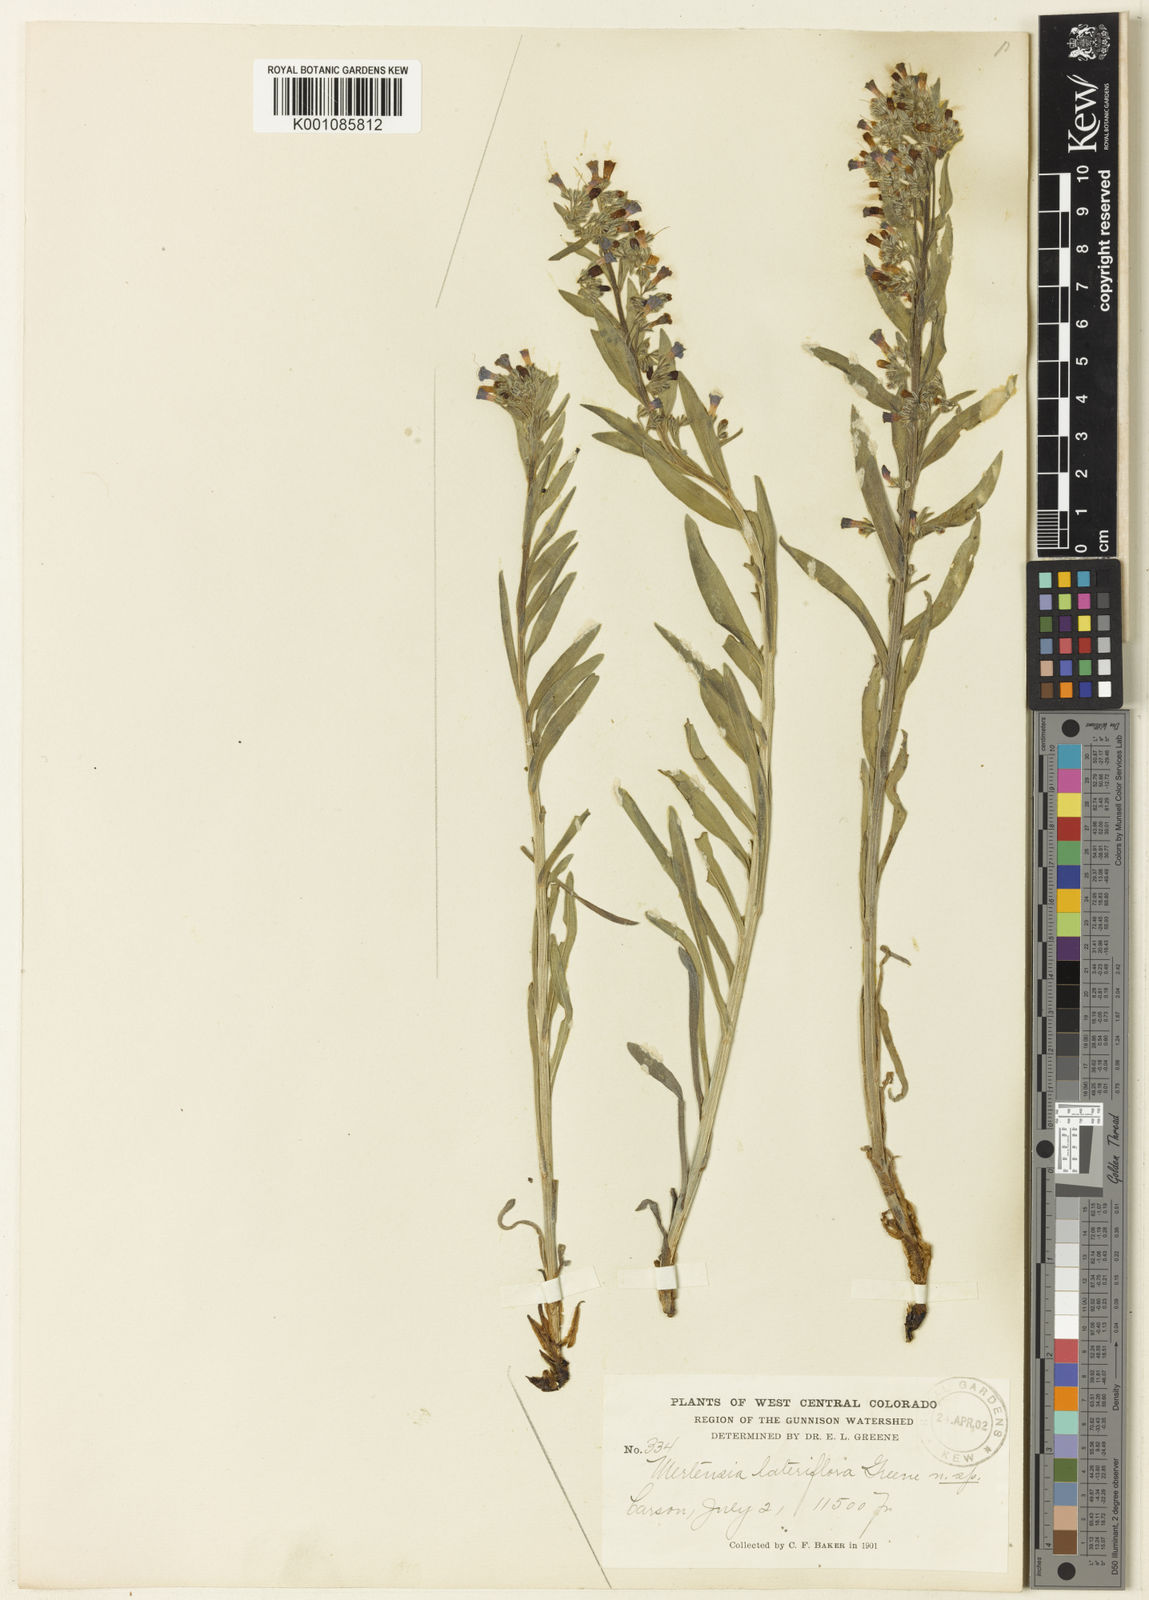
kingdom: Plantae
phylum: Tracheophyta
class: Magnoliopsida
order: Boraginales
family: Boraginaceae
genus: Mertensia
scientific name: Mertensia lateriflora
